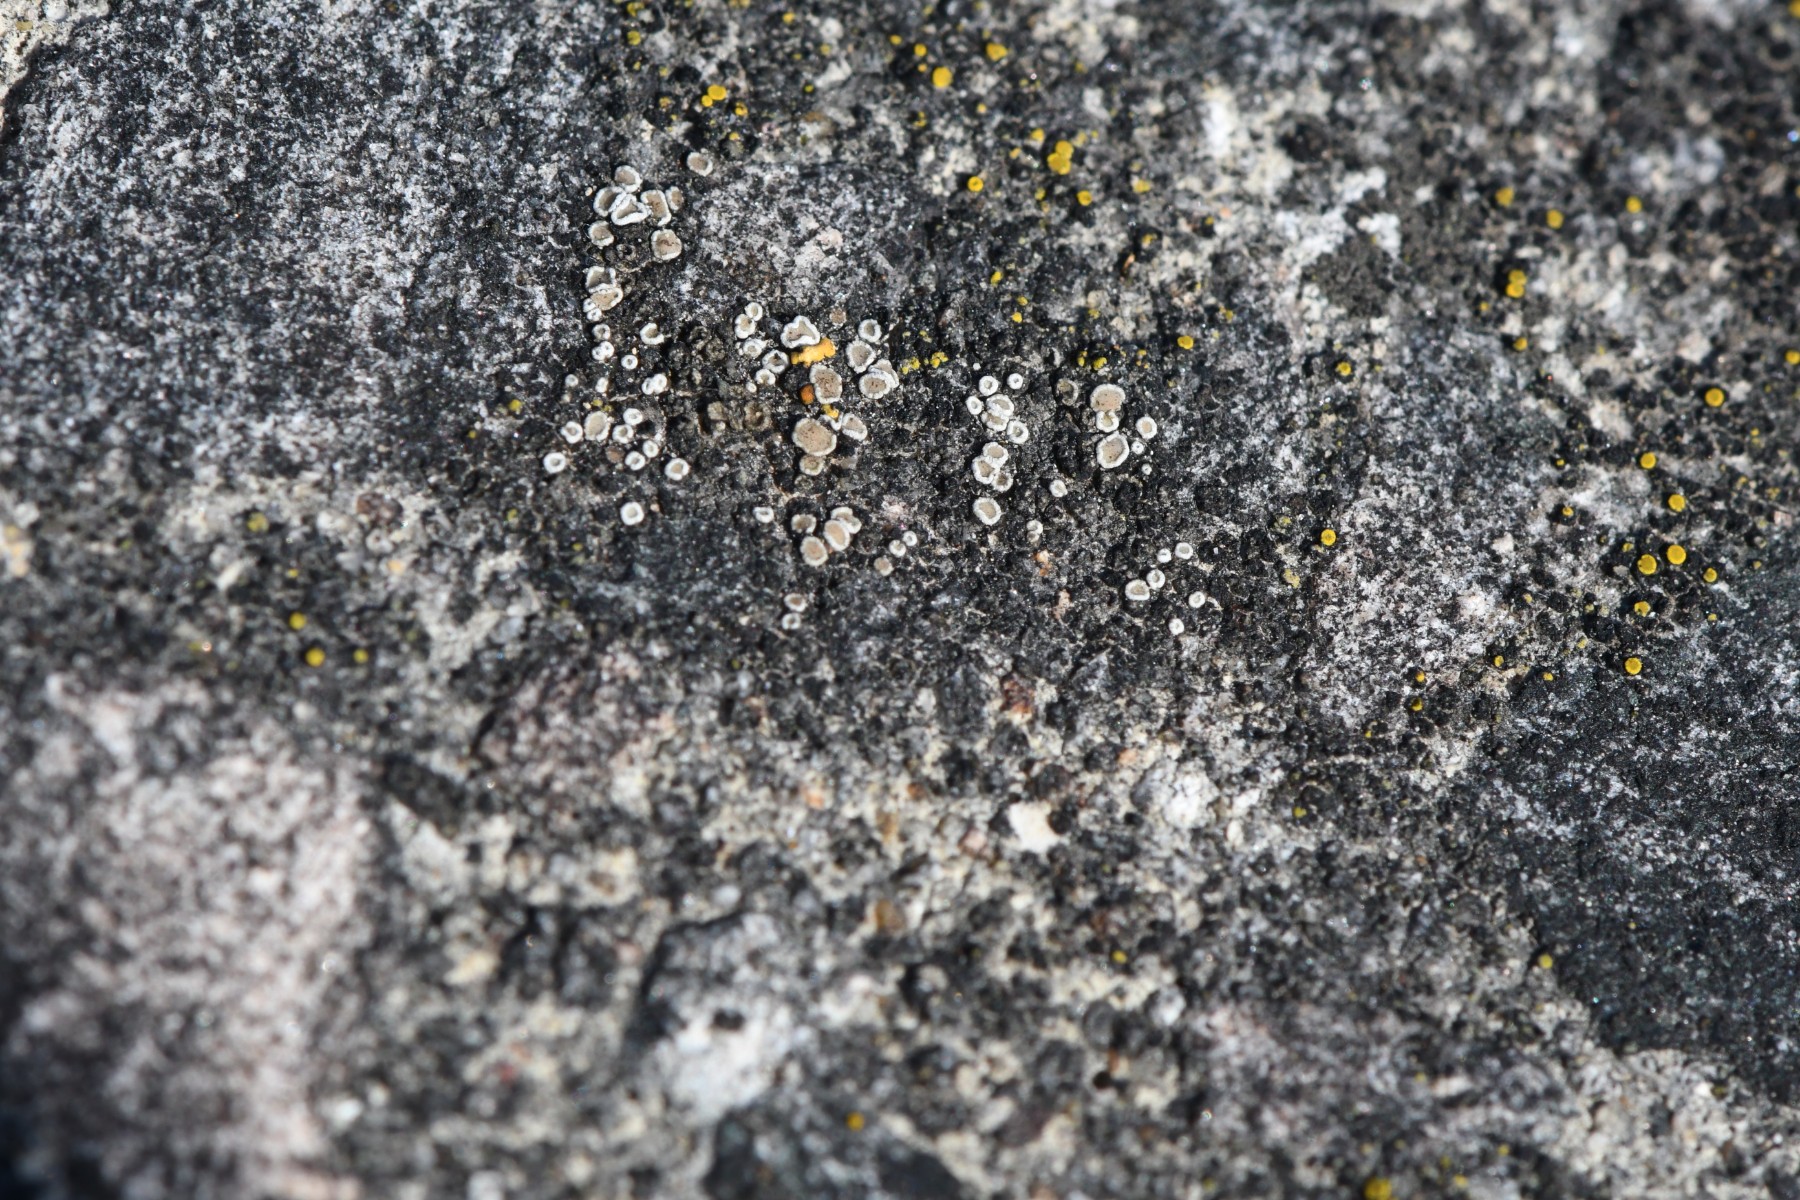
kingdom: Fungi
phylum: Ascomycota
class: Lecanoromycetes
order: Lecanorales
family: Lecanoraceae
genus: Polyozosia
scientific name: Polyozosia dispersa
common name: spredt kantskivelav
